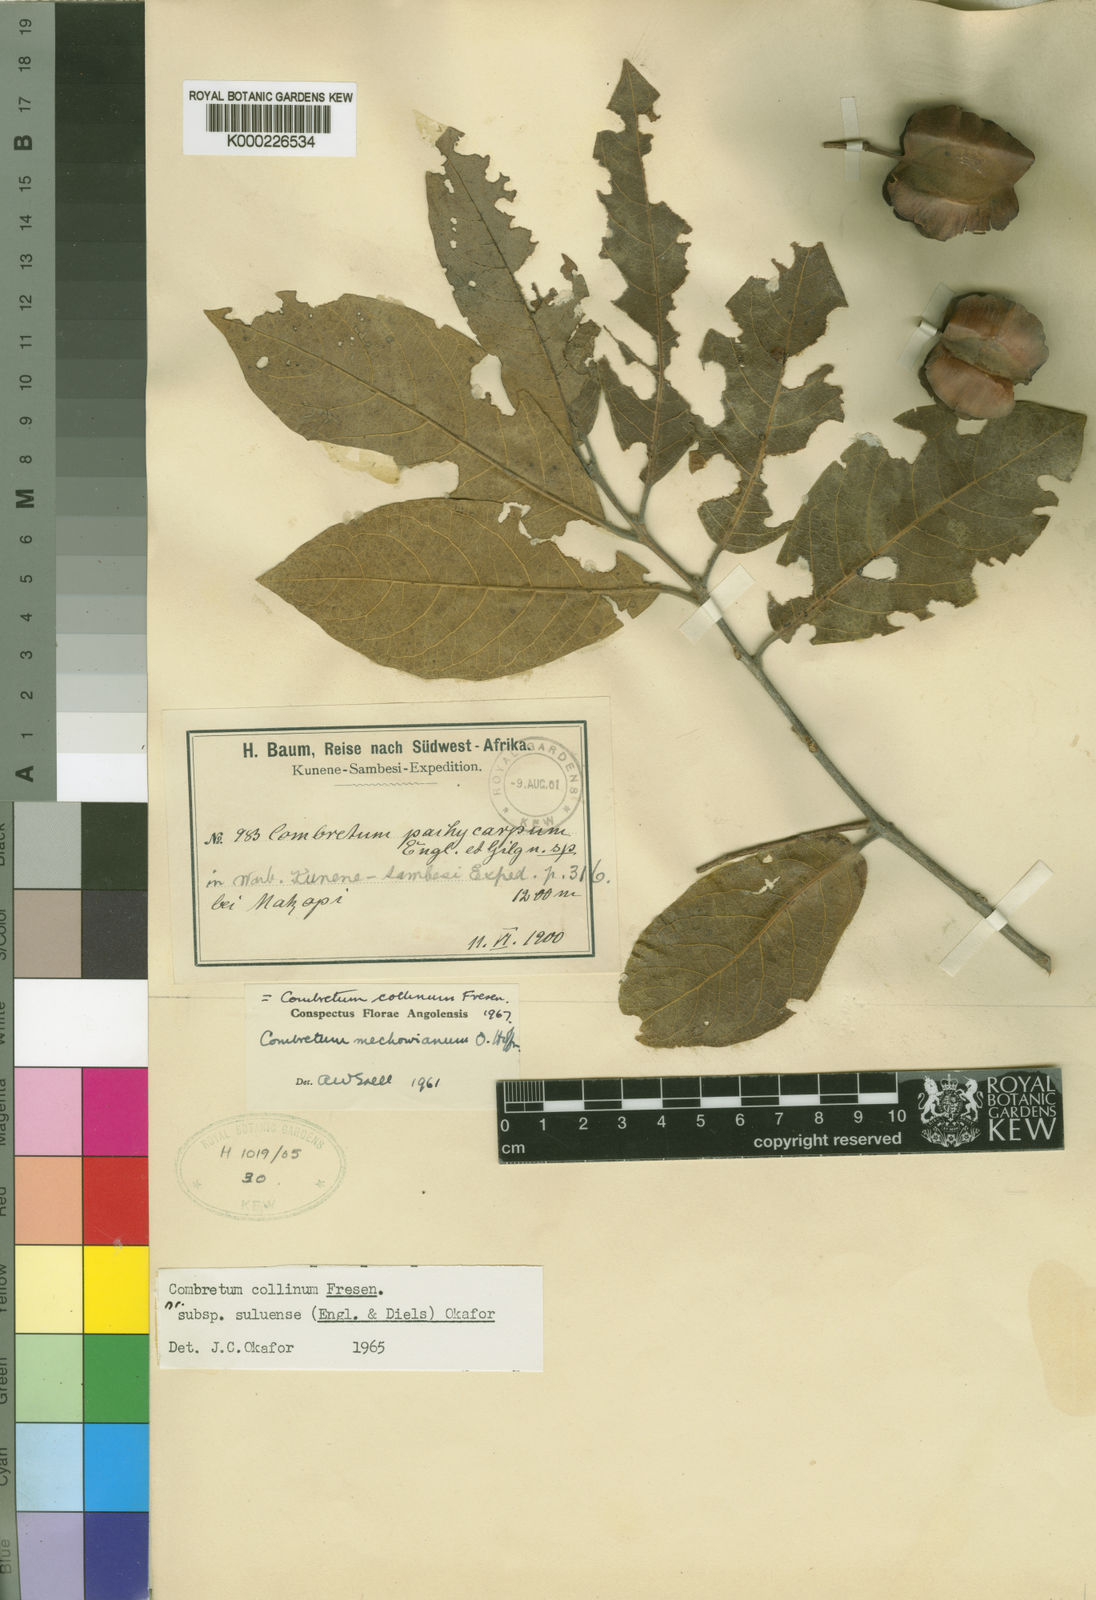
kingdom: Plantae
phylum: Tracheophyta
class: Magnoliopsida
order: Myrtales
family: Combretaceae
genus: Combretum
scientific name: Combretum collinum
